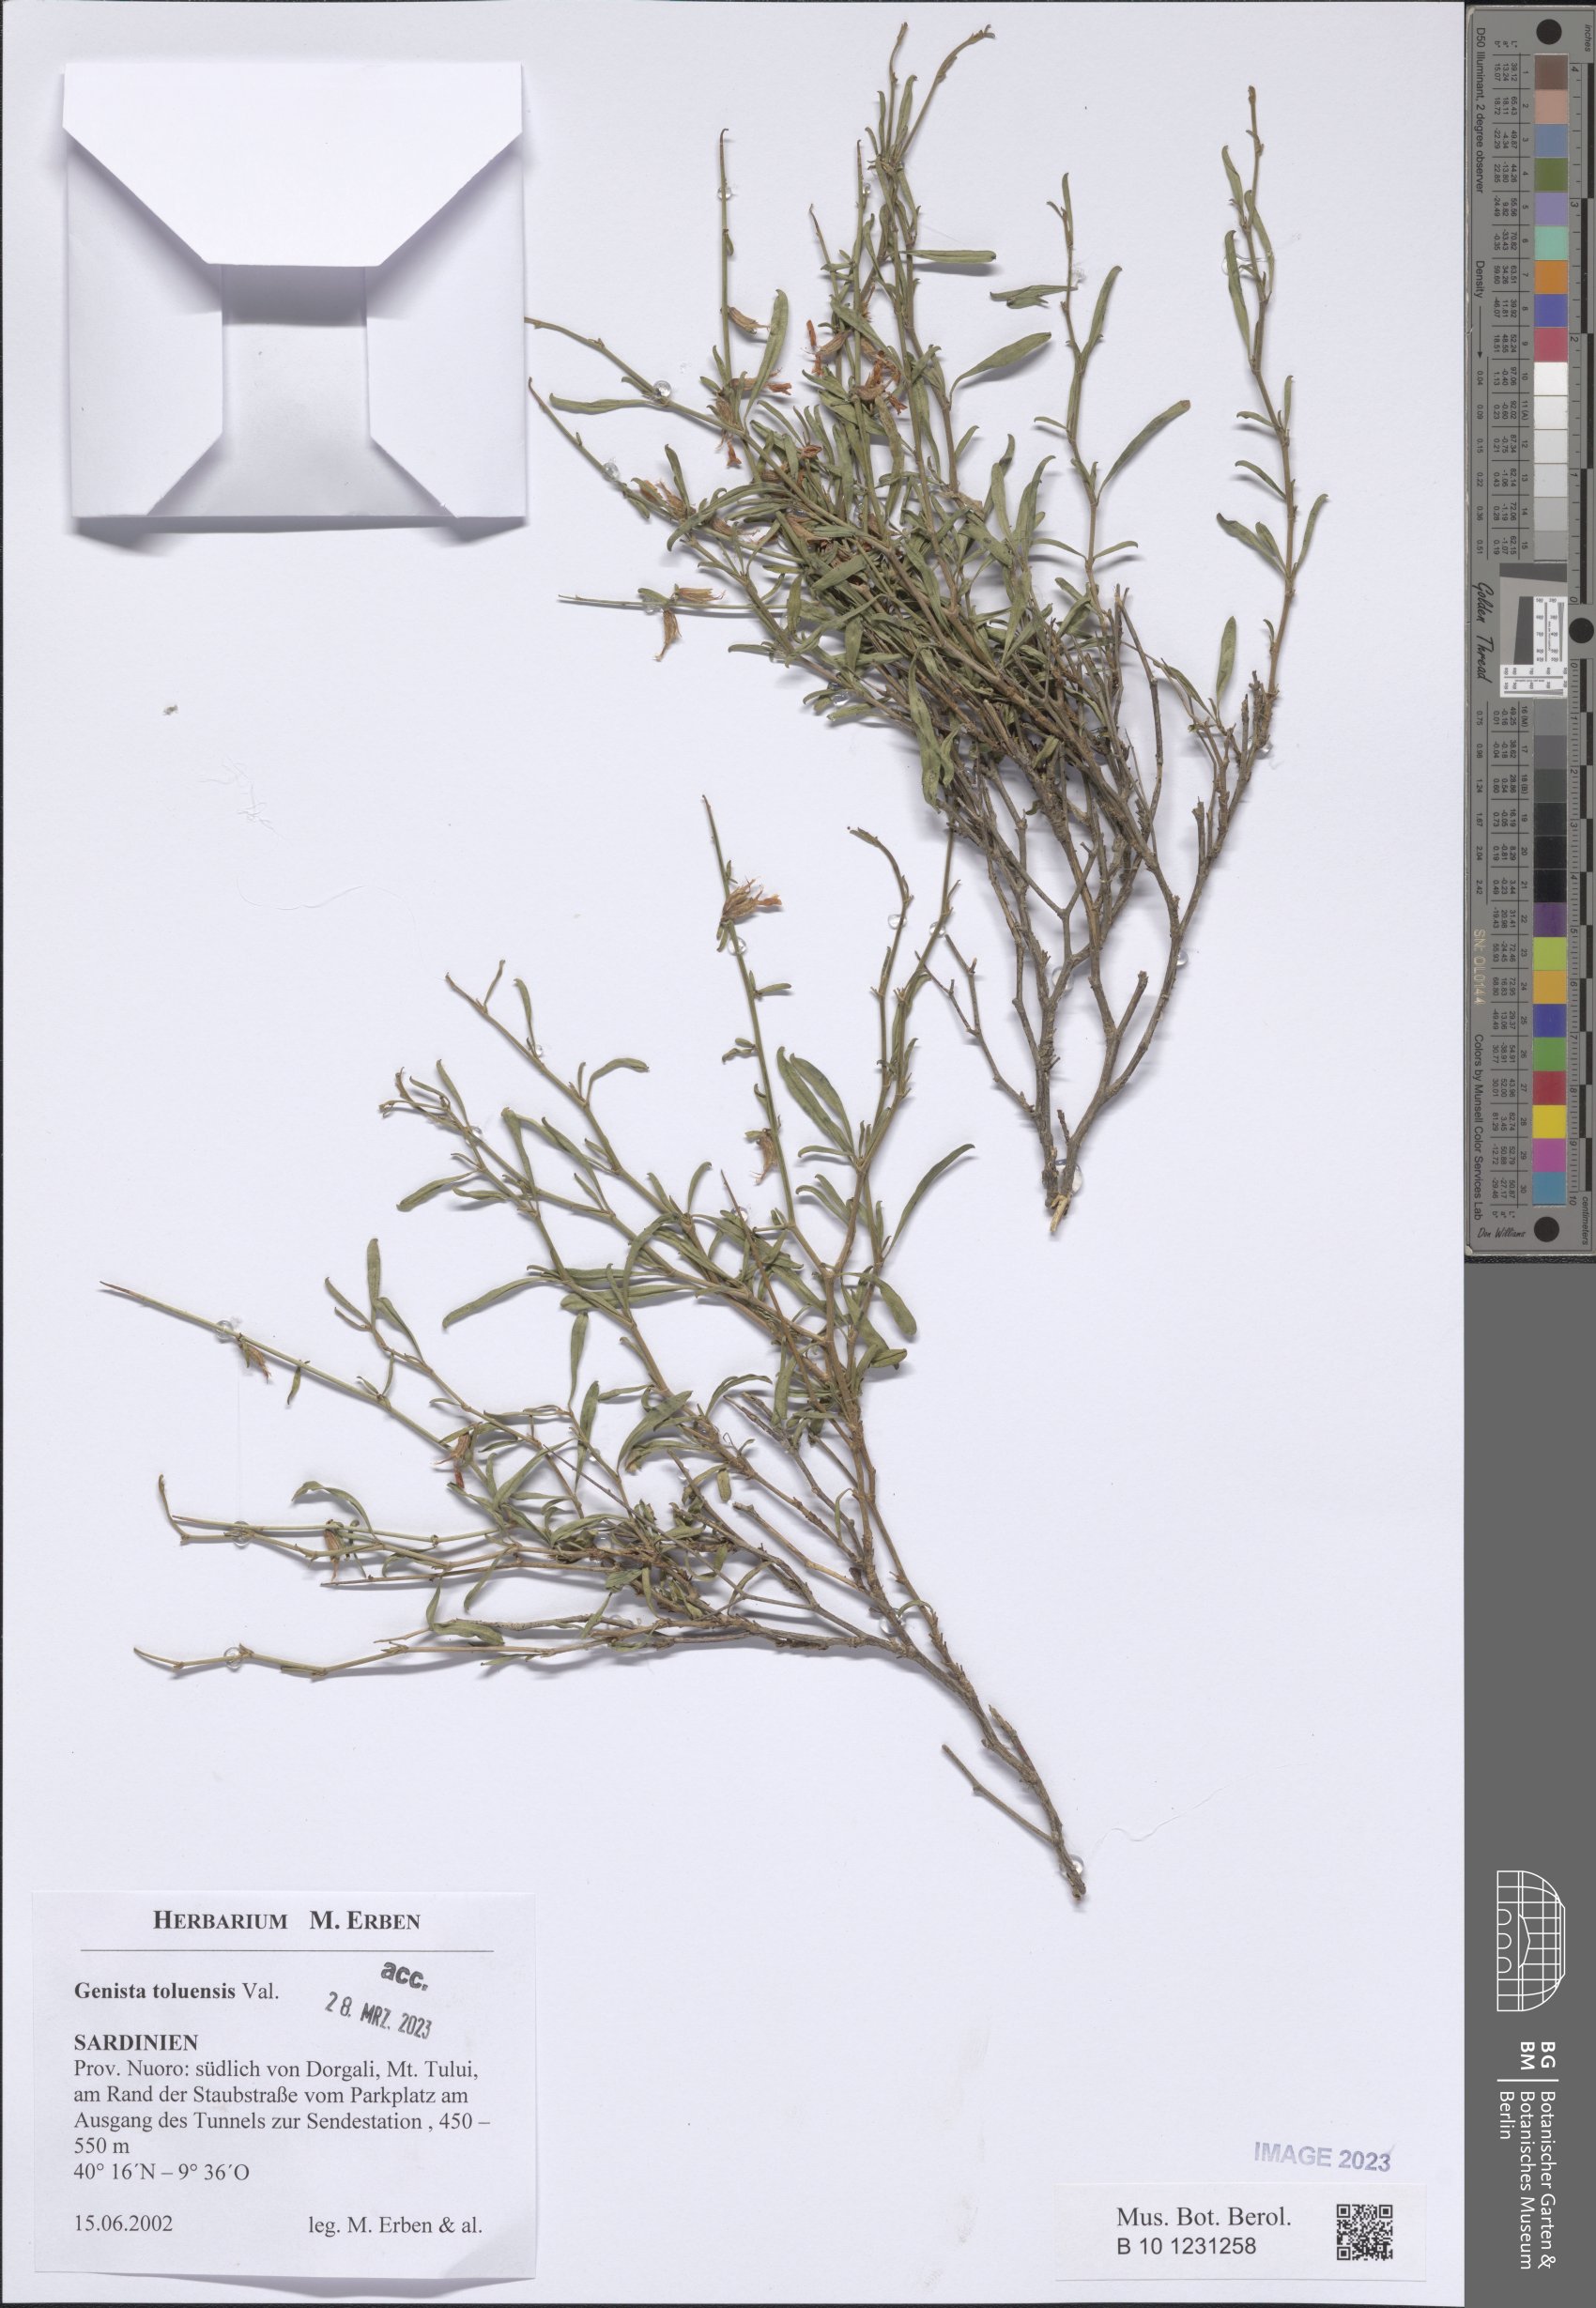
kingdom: Plantae
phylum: Tracheophyta
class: Magnoliopsida
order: Fabales
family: Fabaceae
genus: Genista
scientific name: Genista toluensis
